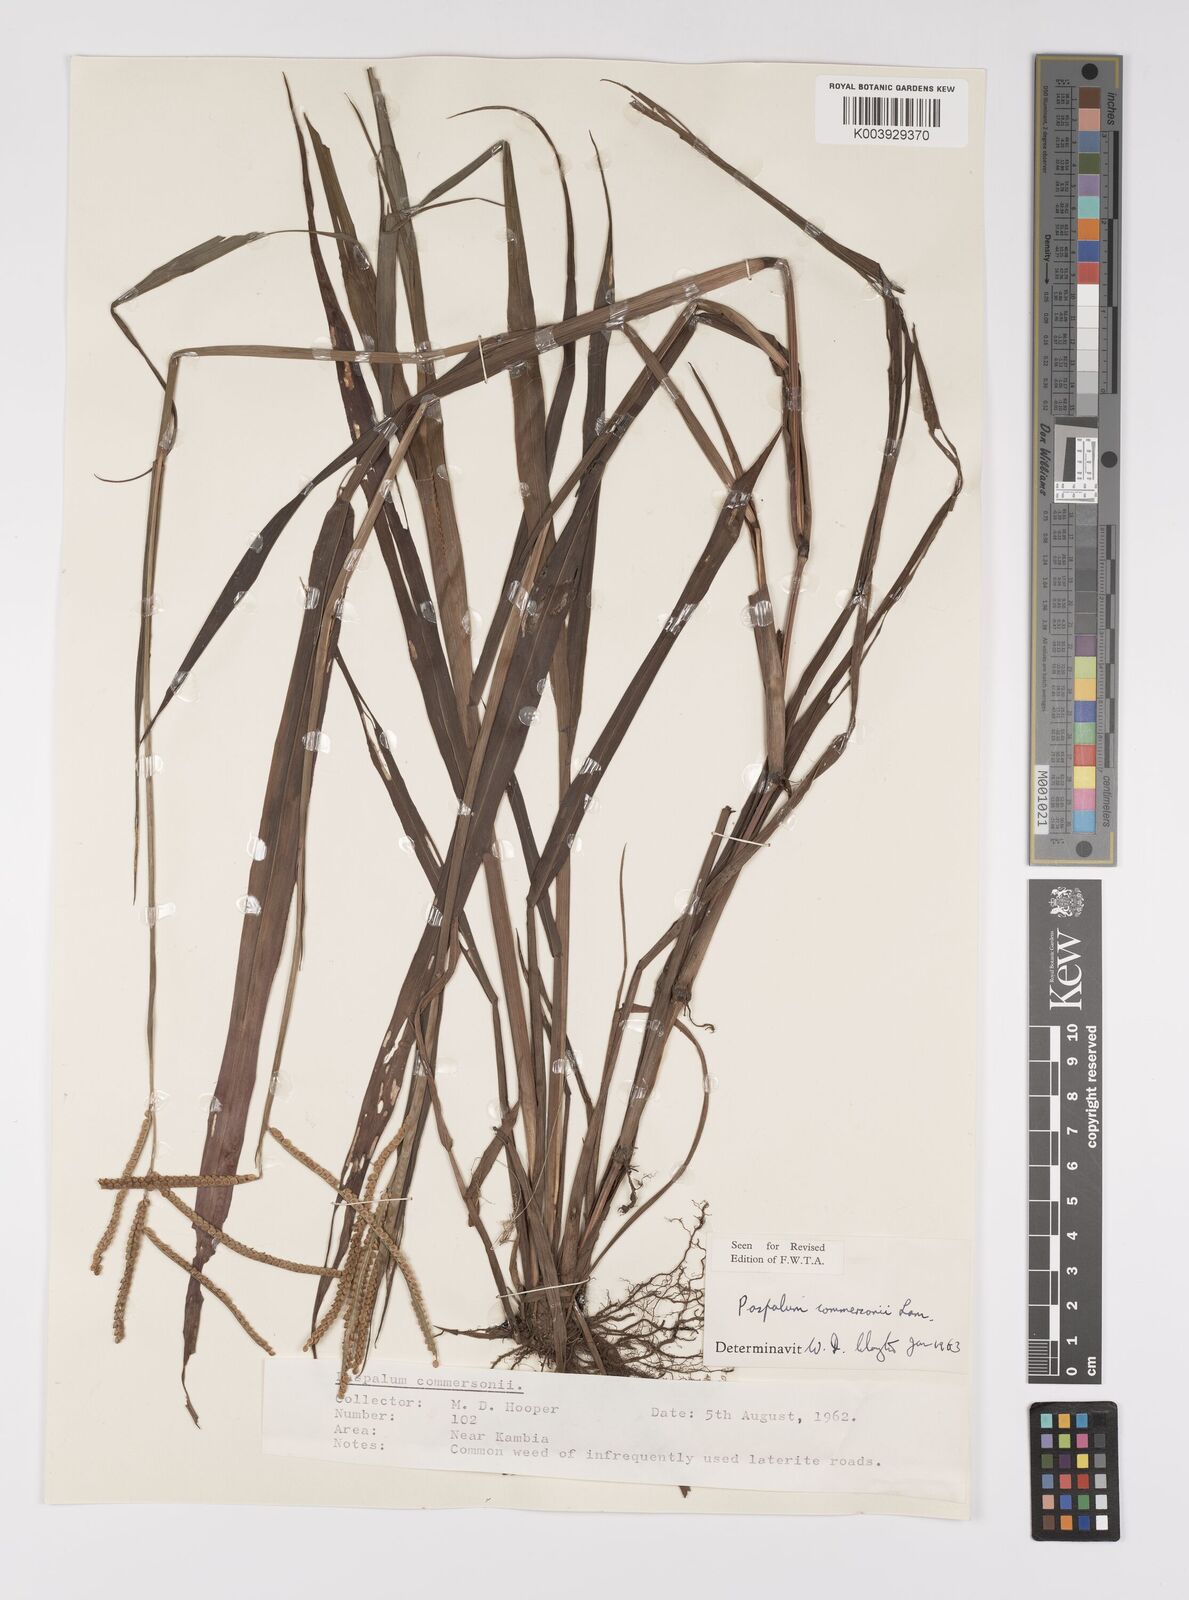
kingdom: Plantae
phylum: Tracheophyta
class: Liliopsida
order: Poales
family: Poaceae
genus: Paspalum
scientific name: Paspalum scrobiculatum
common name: Kodo millet
